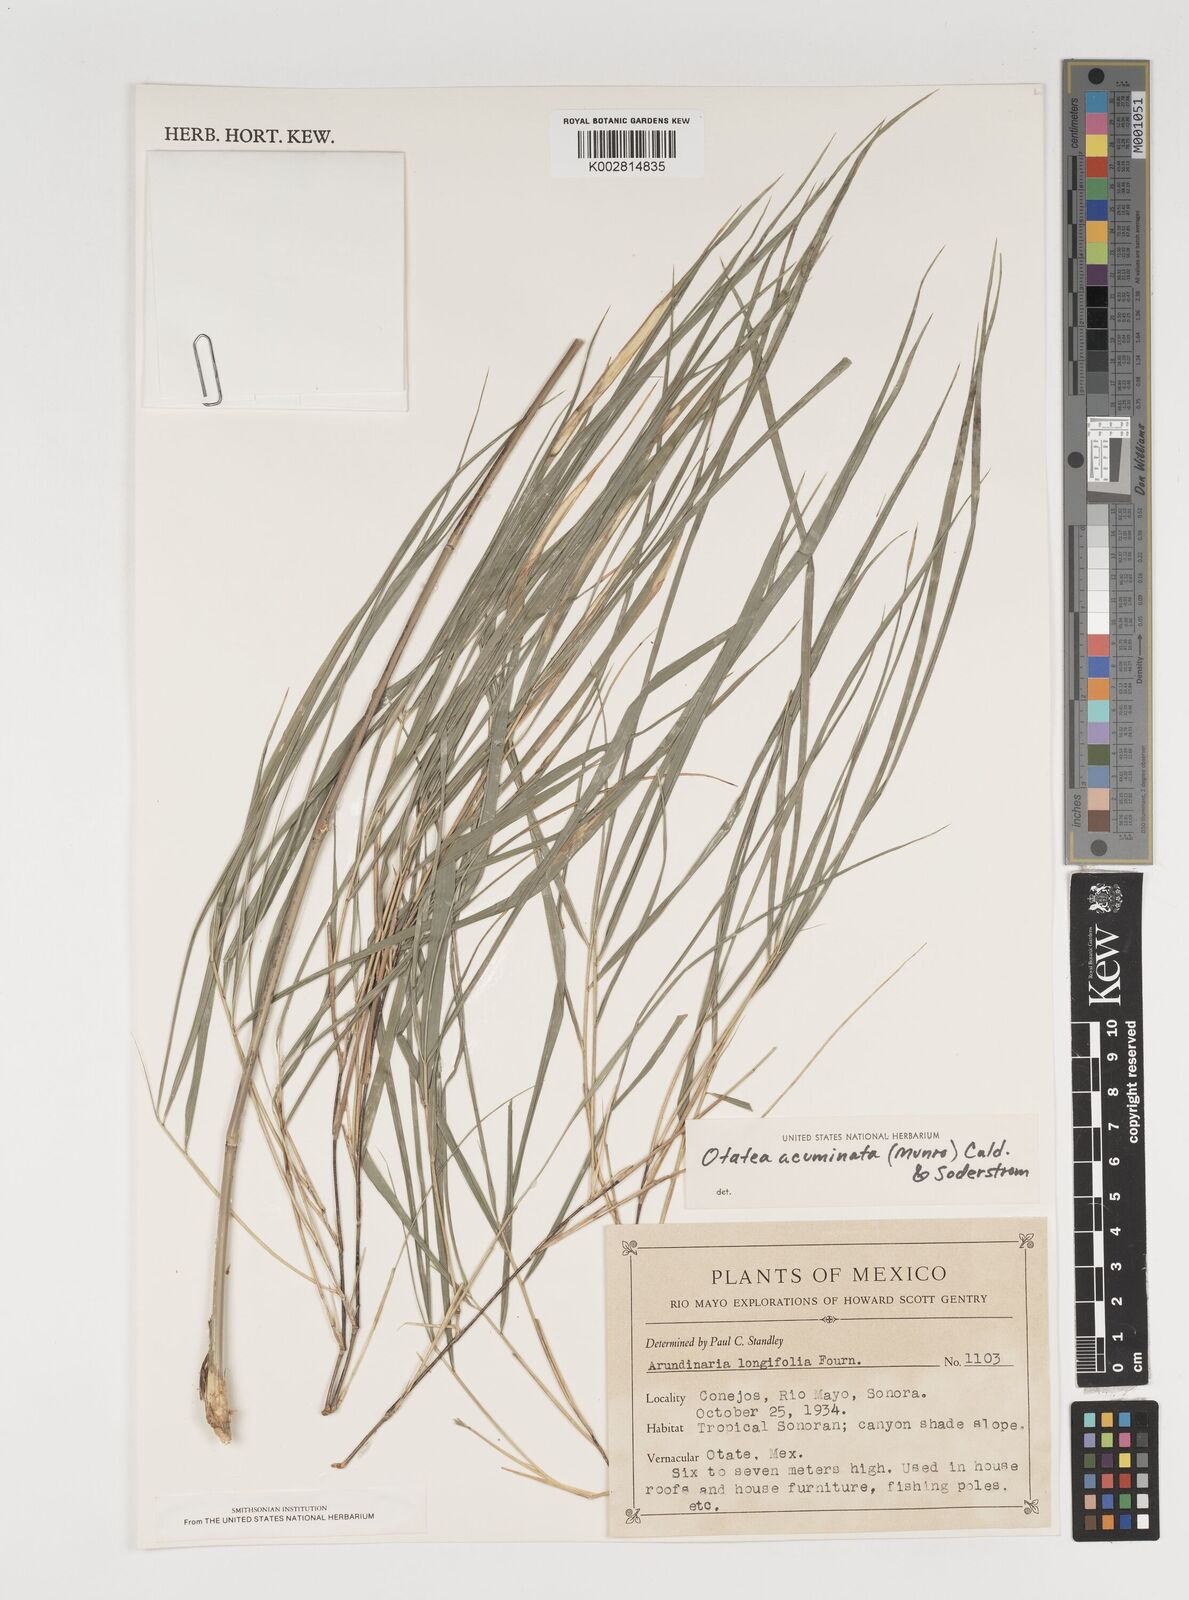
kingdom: Plantae
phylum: Tracheophyta
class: Liliopsida
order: Poales
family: Poaceae
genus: Olmeca
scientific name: Olmeca
